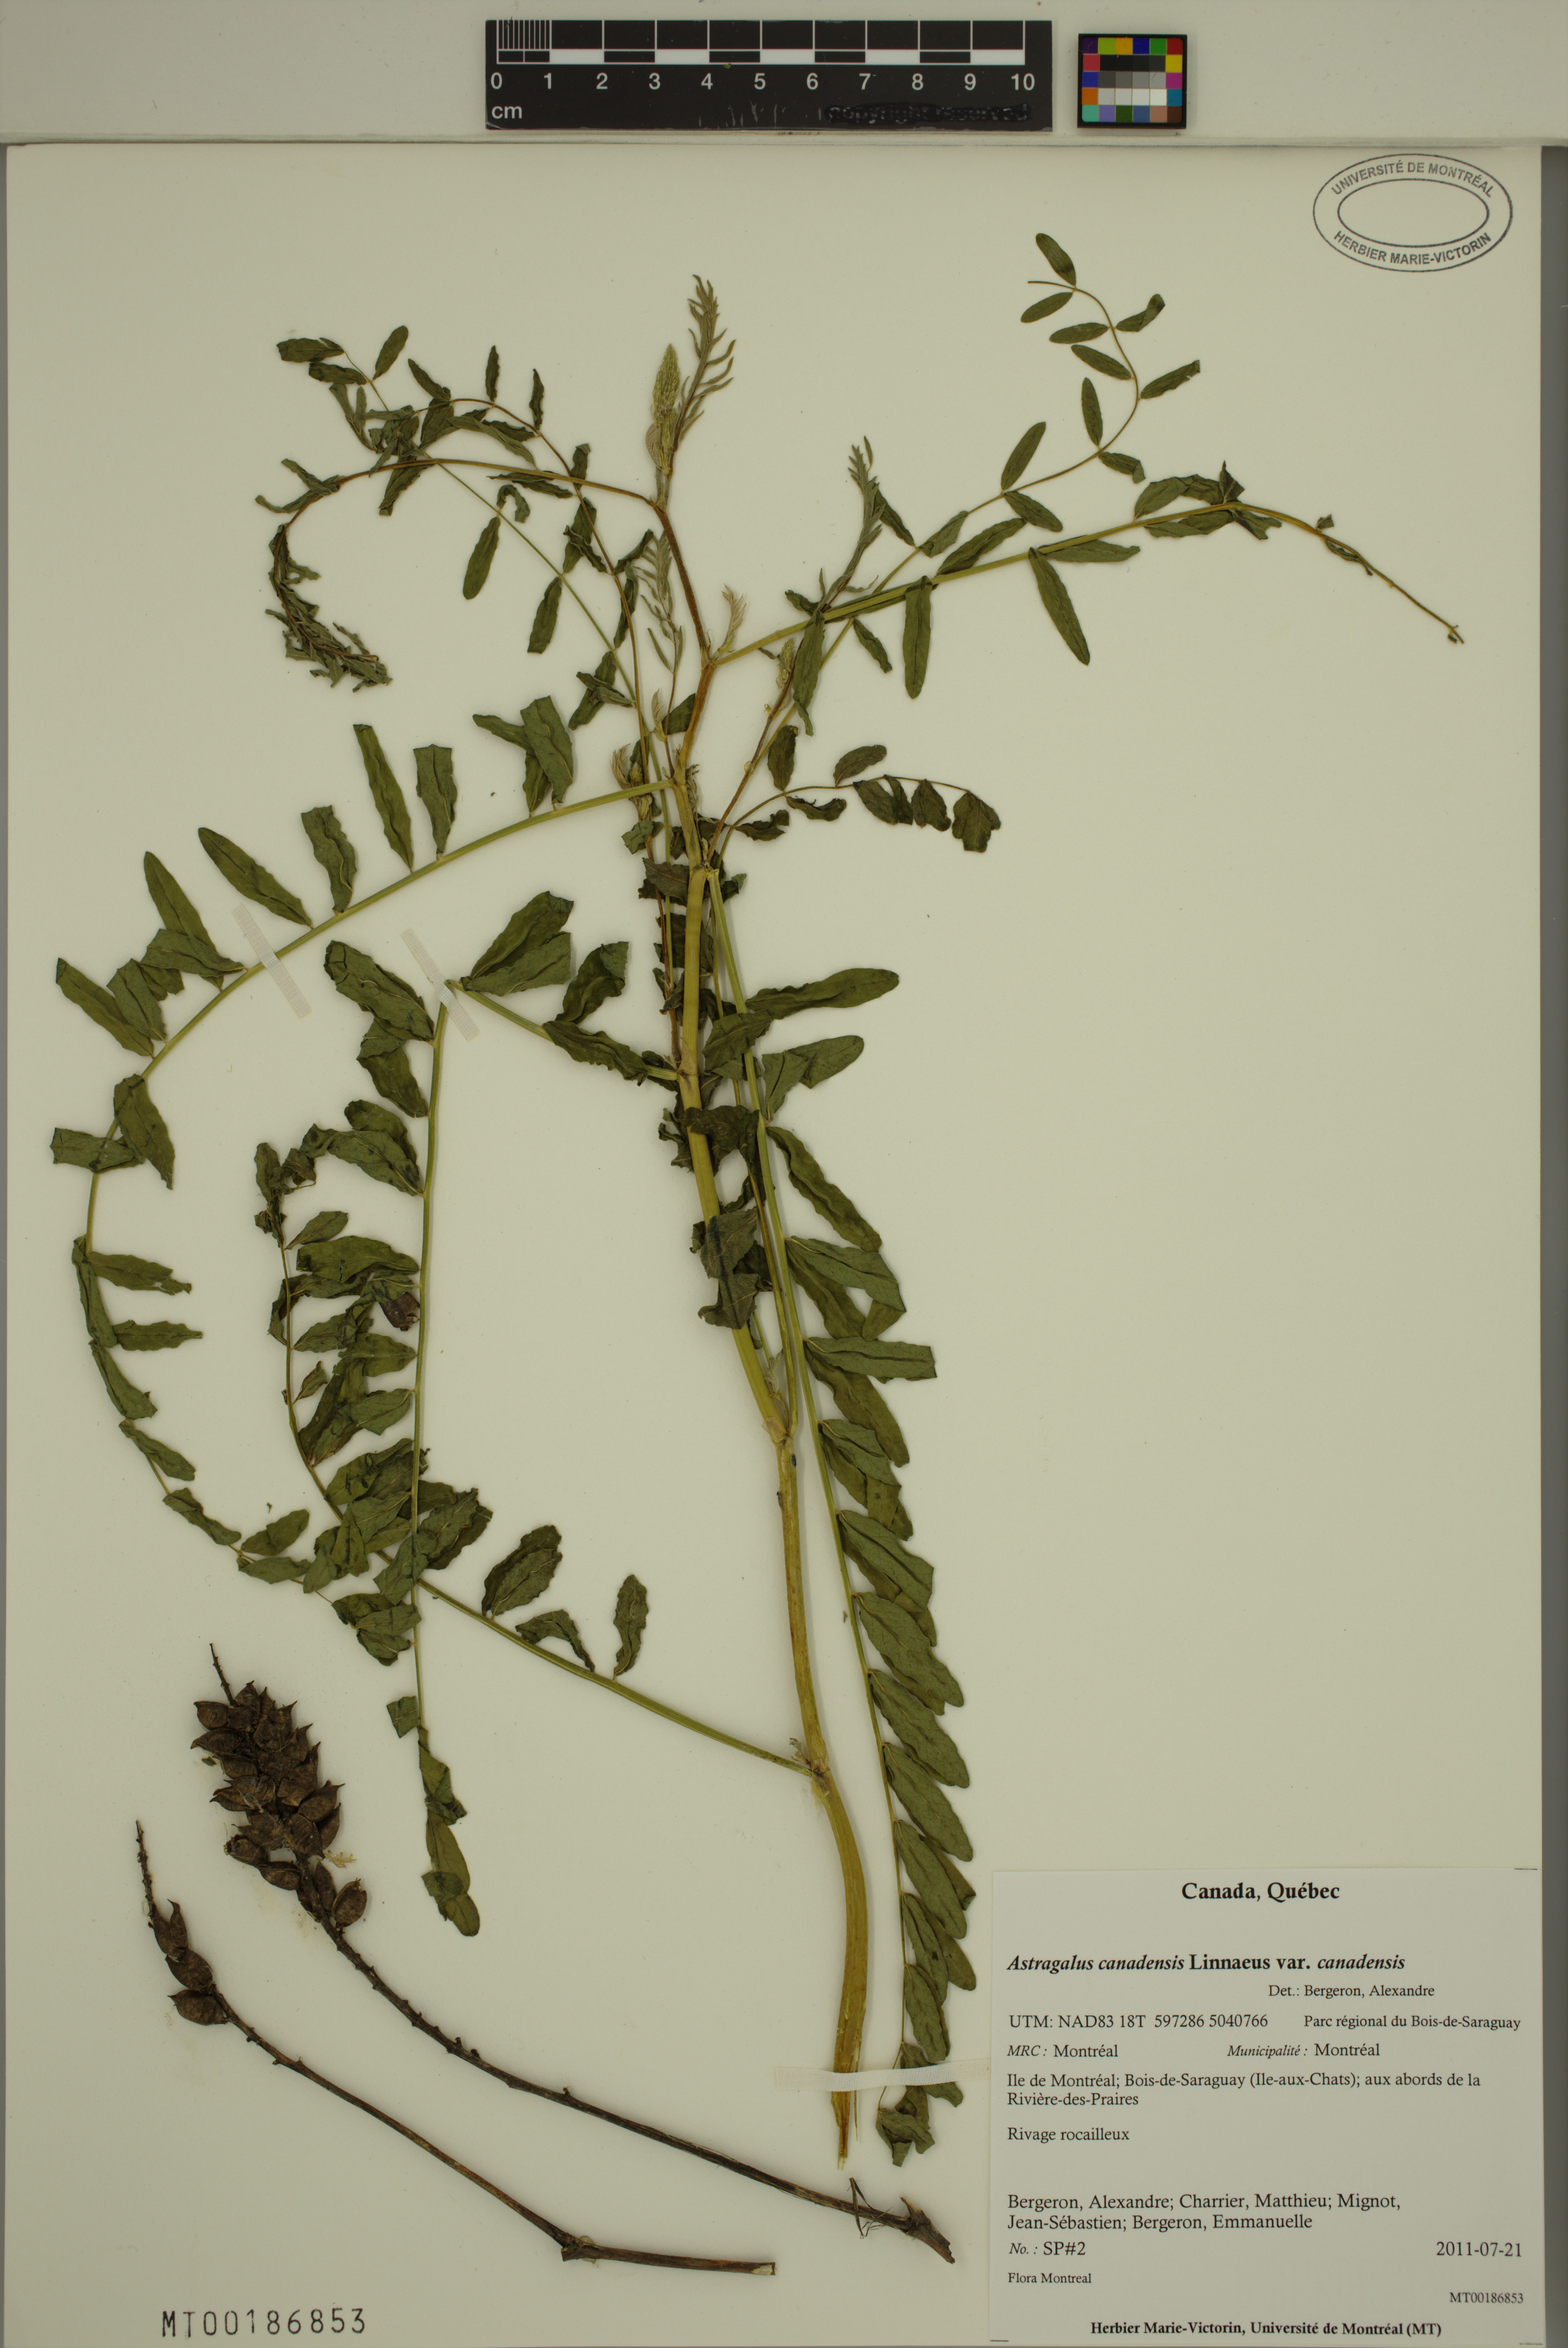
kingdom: Plantae
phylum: Tracheophyta
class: Magnoliopsida
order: Fabales
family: Fabaceae
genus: Astragalus
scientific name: Astragalus canadensis
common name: Canada milk-vetch
